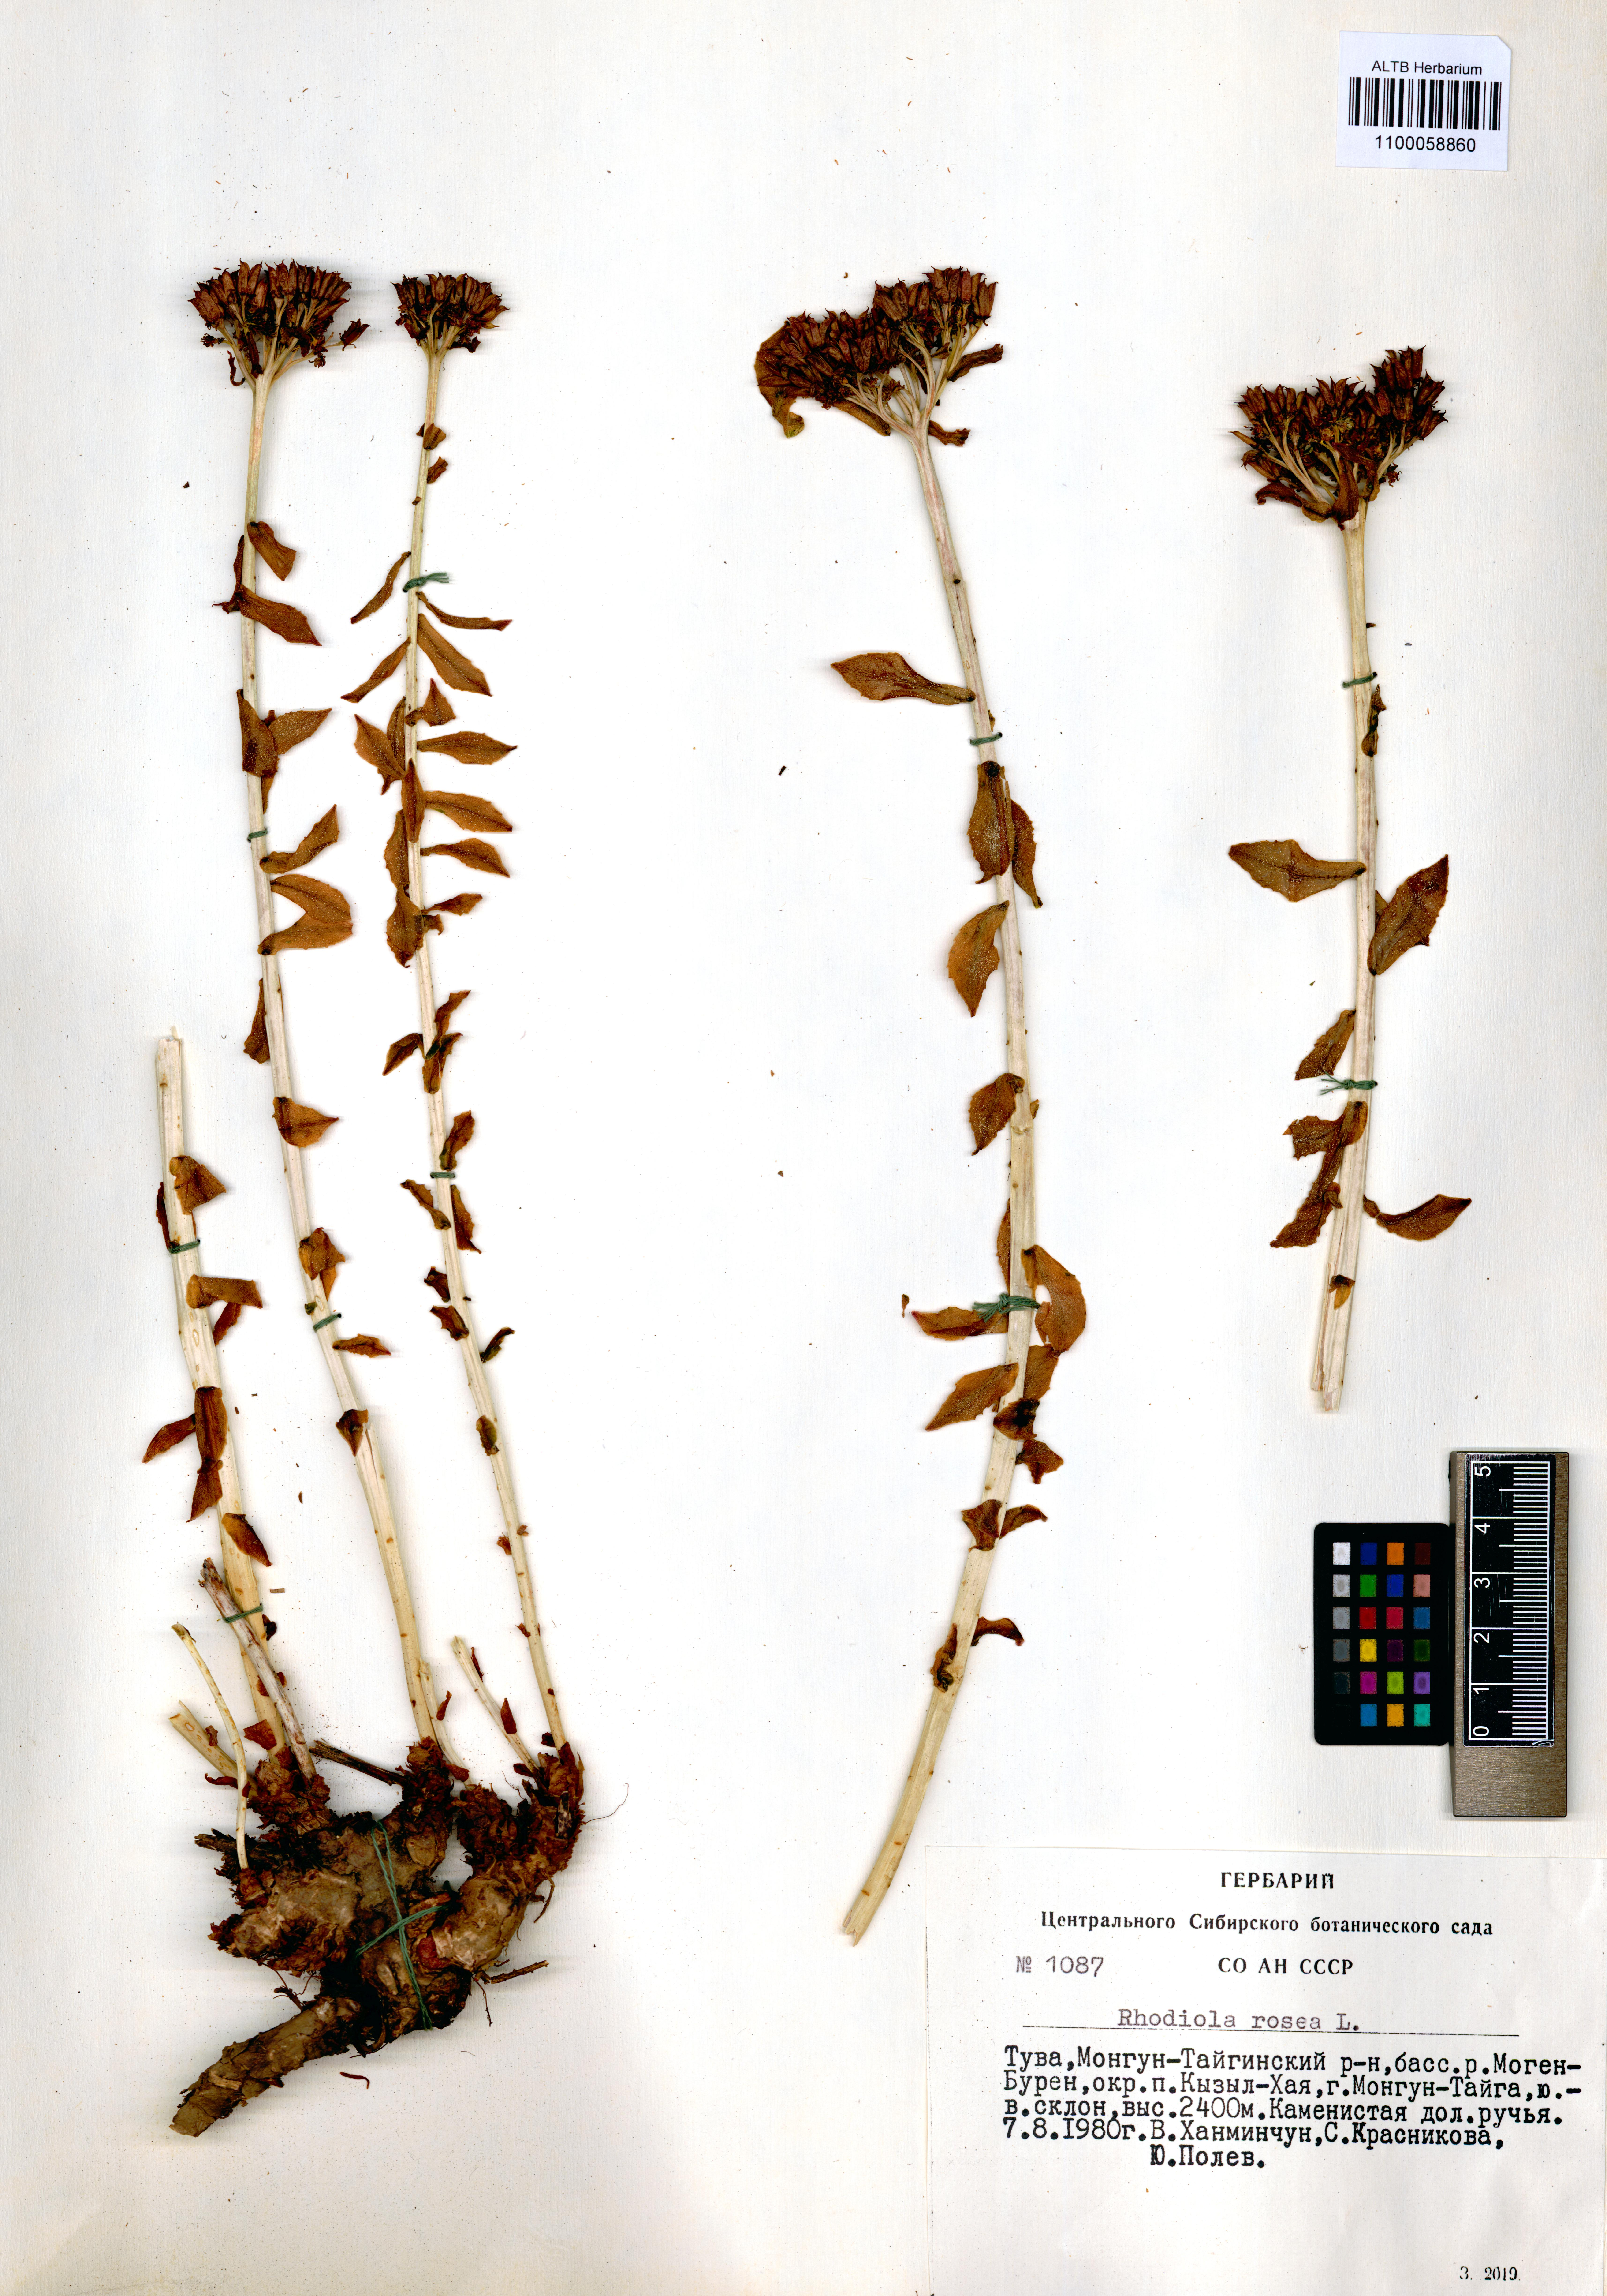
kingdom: Plantae
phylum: Tracheophyta
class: Magnoliopsida
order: Saxifragales
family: Crassulaceae
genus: Rhodiola
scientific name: Rhodiola rosea
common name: Roseroot
